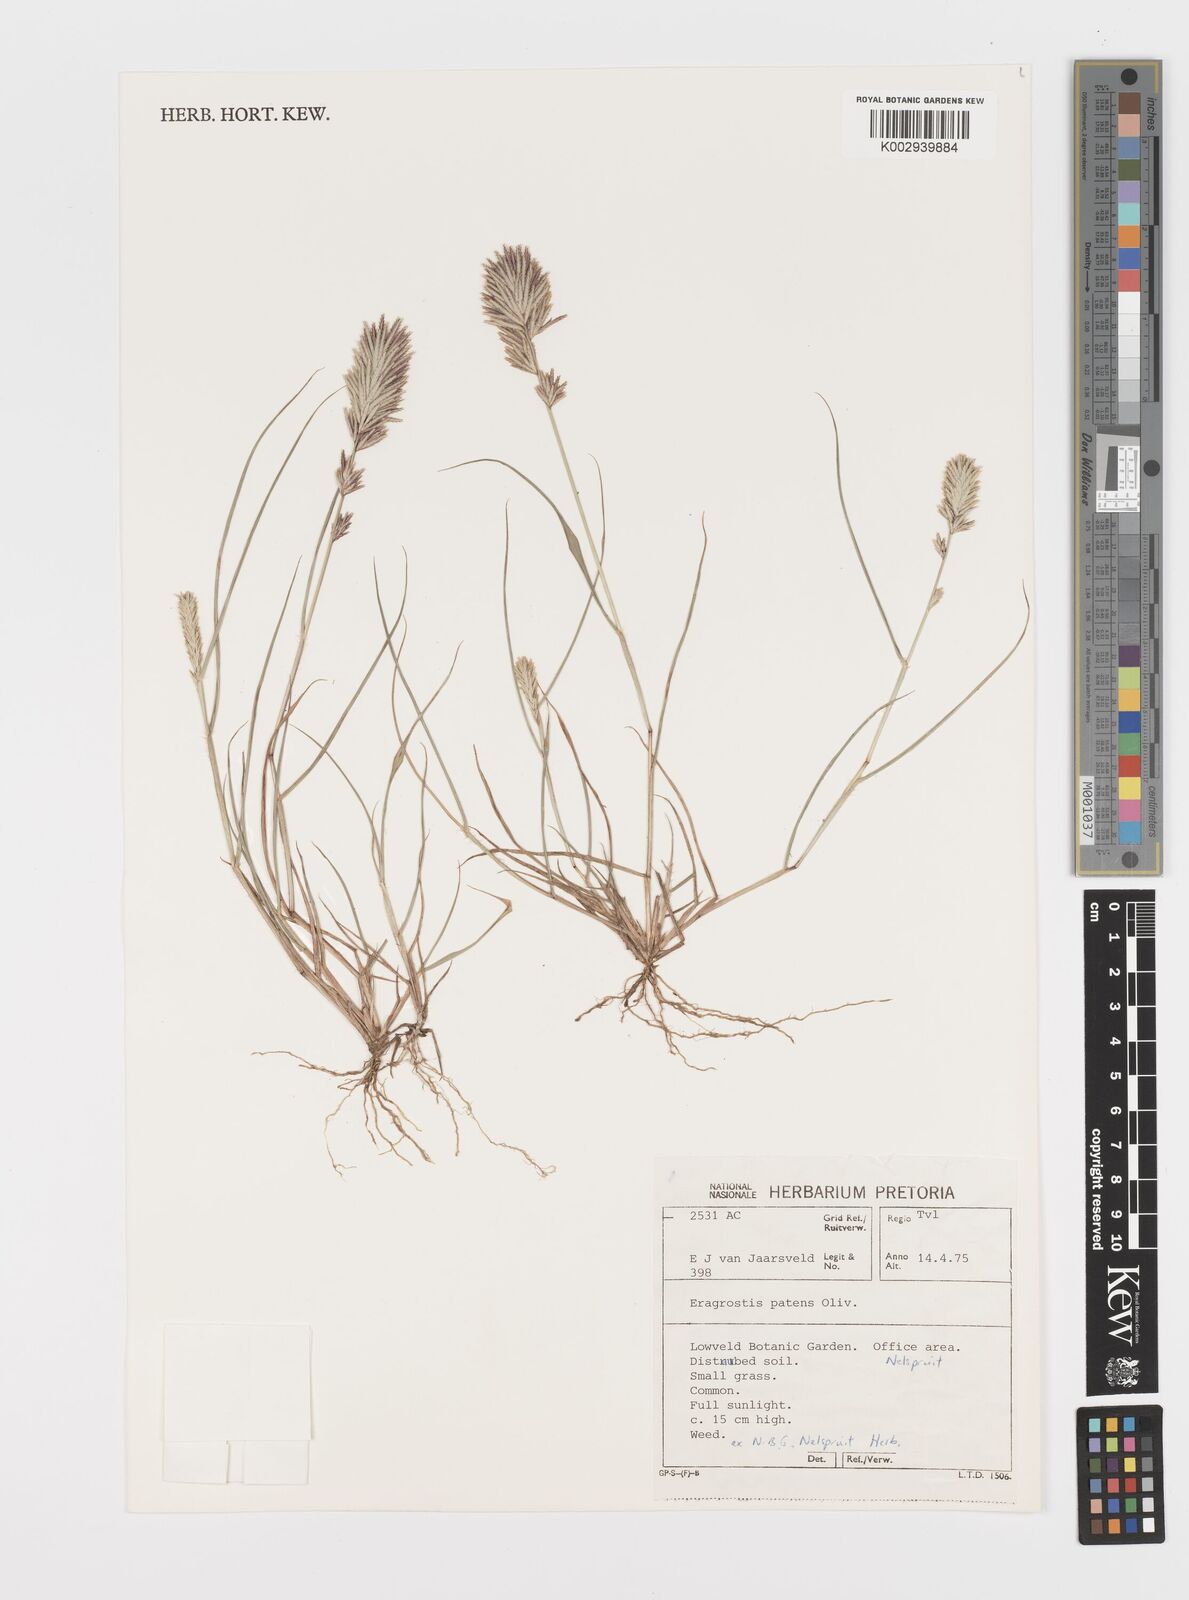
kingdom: Plantae
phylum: Tracheophyta
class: Liliopsida
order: Poales
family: Poaceae
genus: Eragrostis
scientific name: Eragrostis patens
